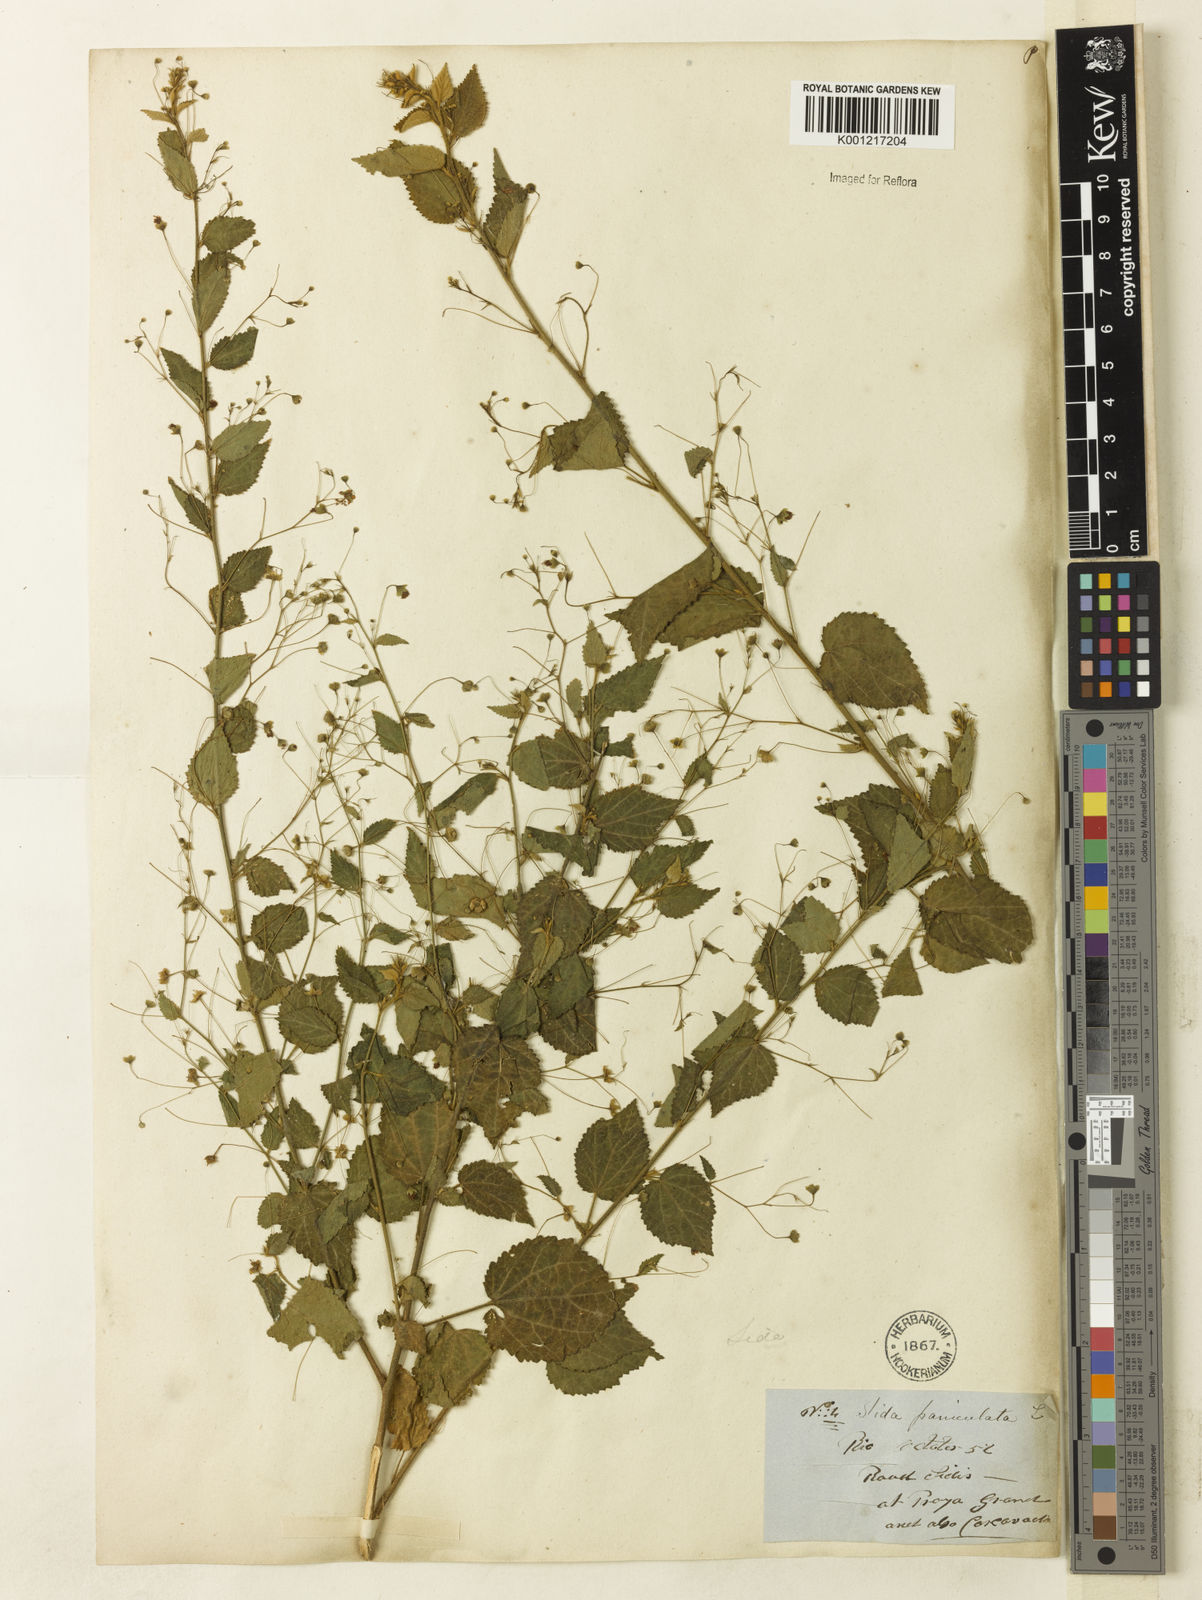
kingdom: Plantae
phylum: Tracheophyta
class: Magnoliopsida
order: Malvales
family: Malvaceae
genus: Sidastrum
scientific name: Sidastrum paniculatum
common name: Panicled sandmallow
